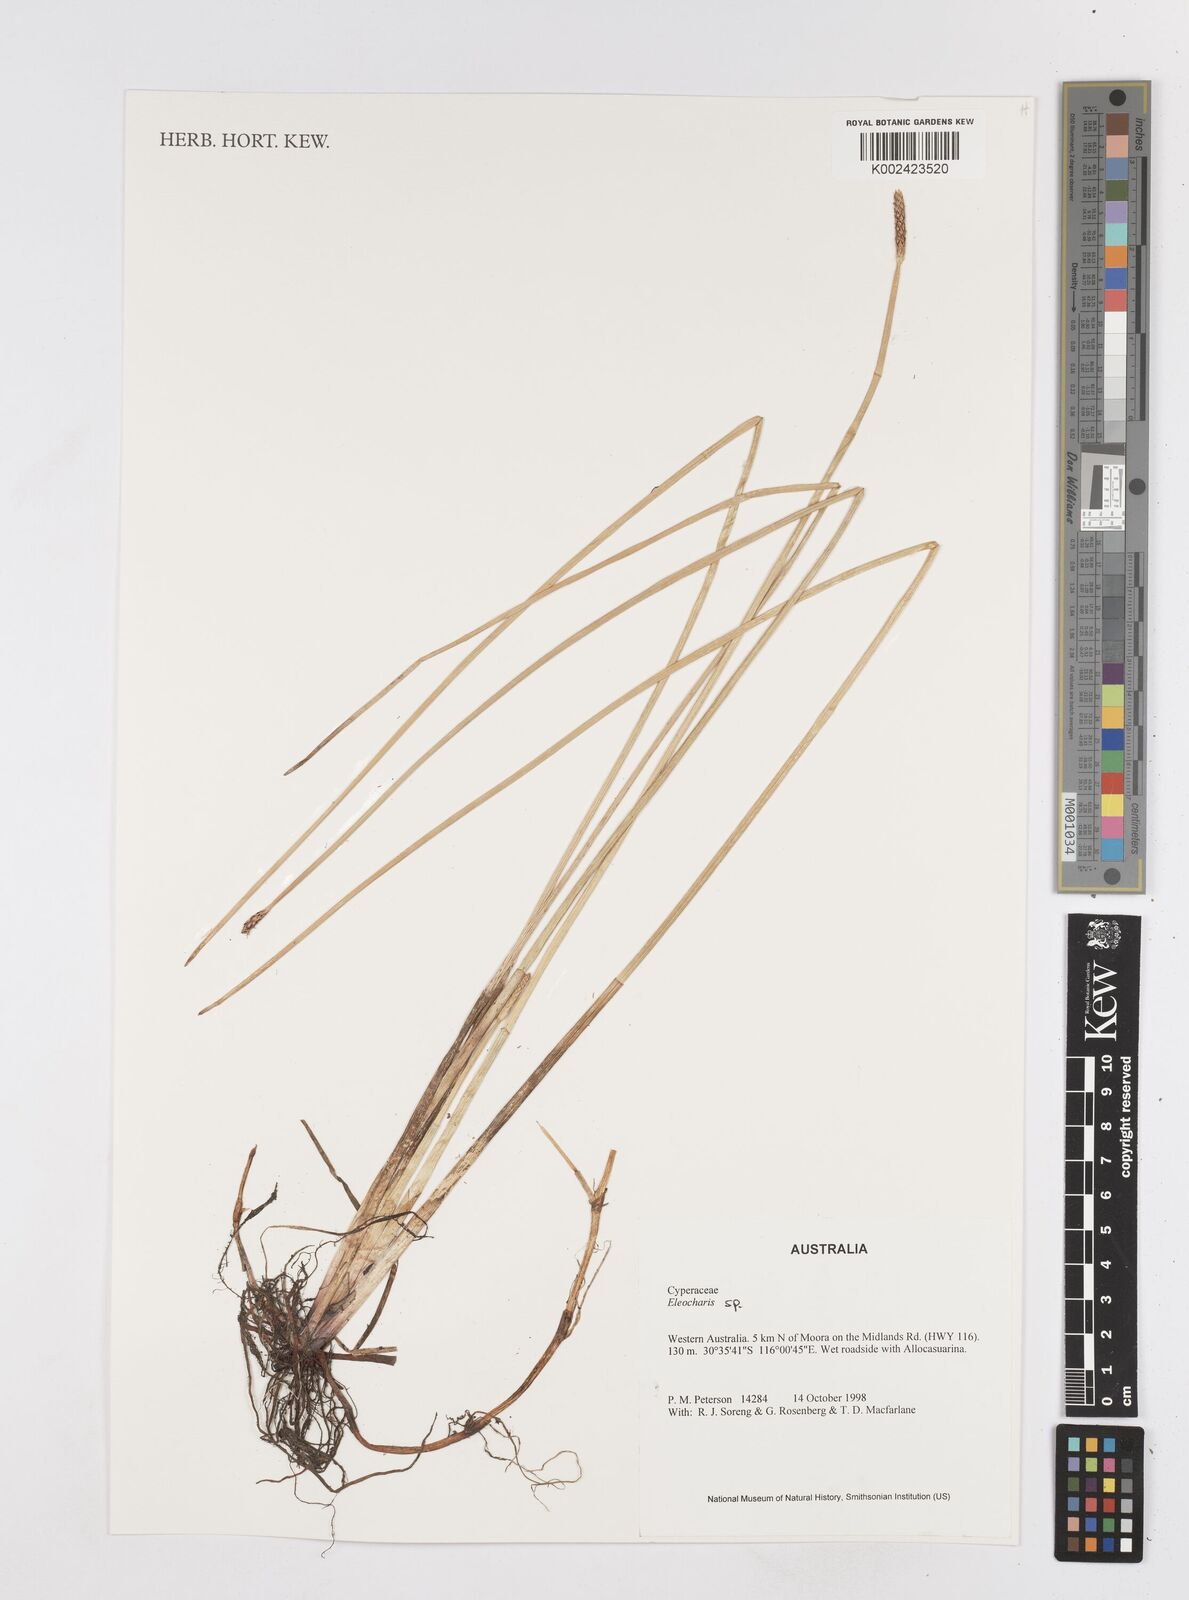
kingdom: Plantae
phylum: Tracheophyta
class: Liliopsida
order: Poales
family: Cyperaceae
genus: Eleocharis
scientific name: Eleocharis
